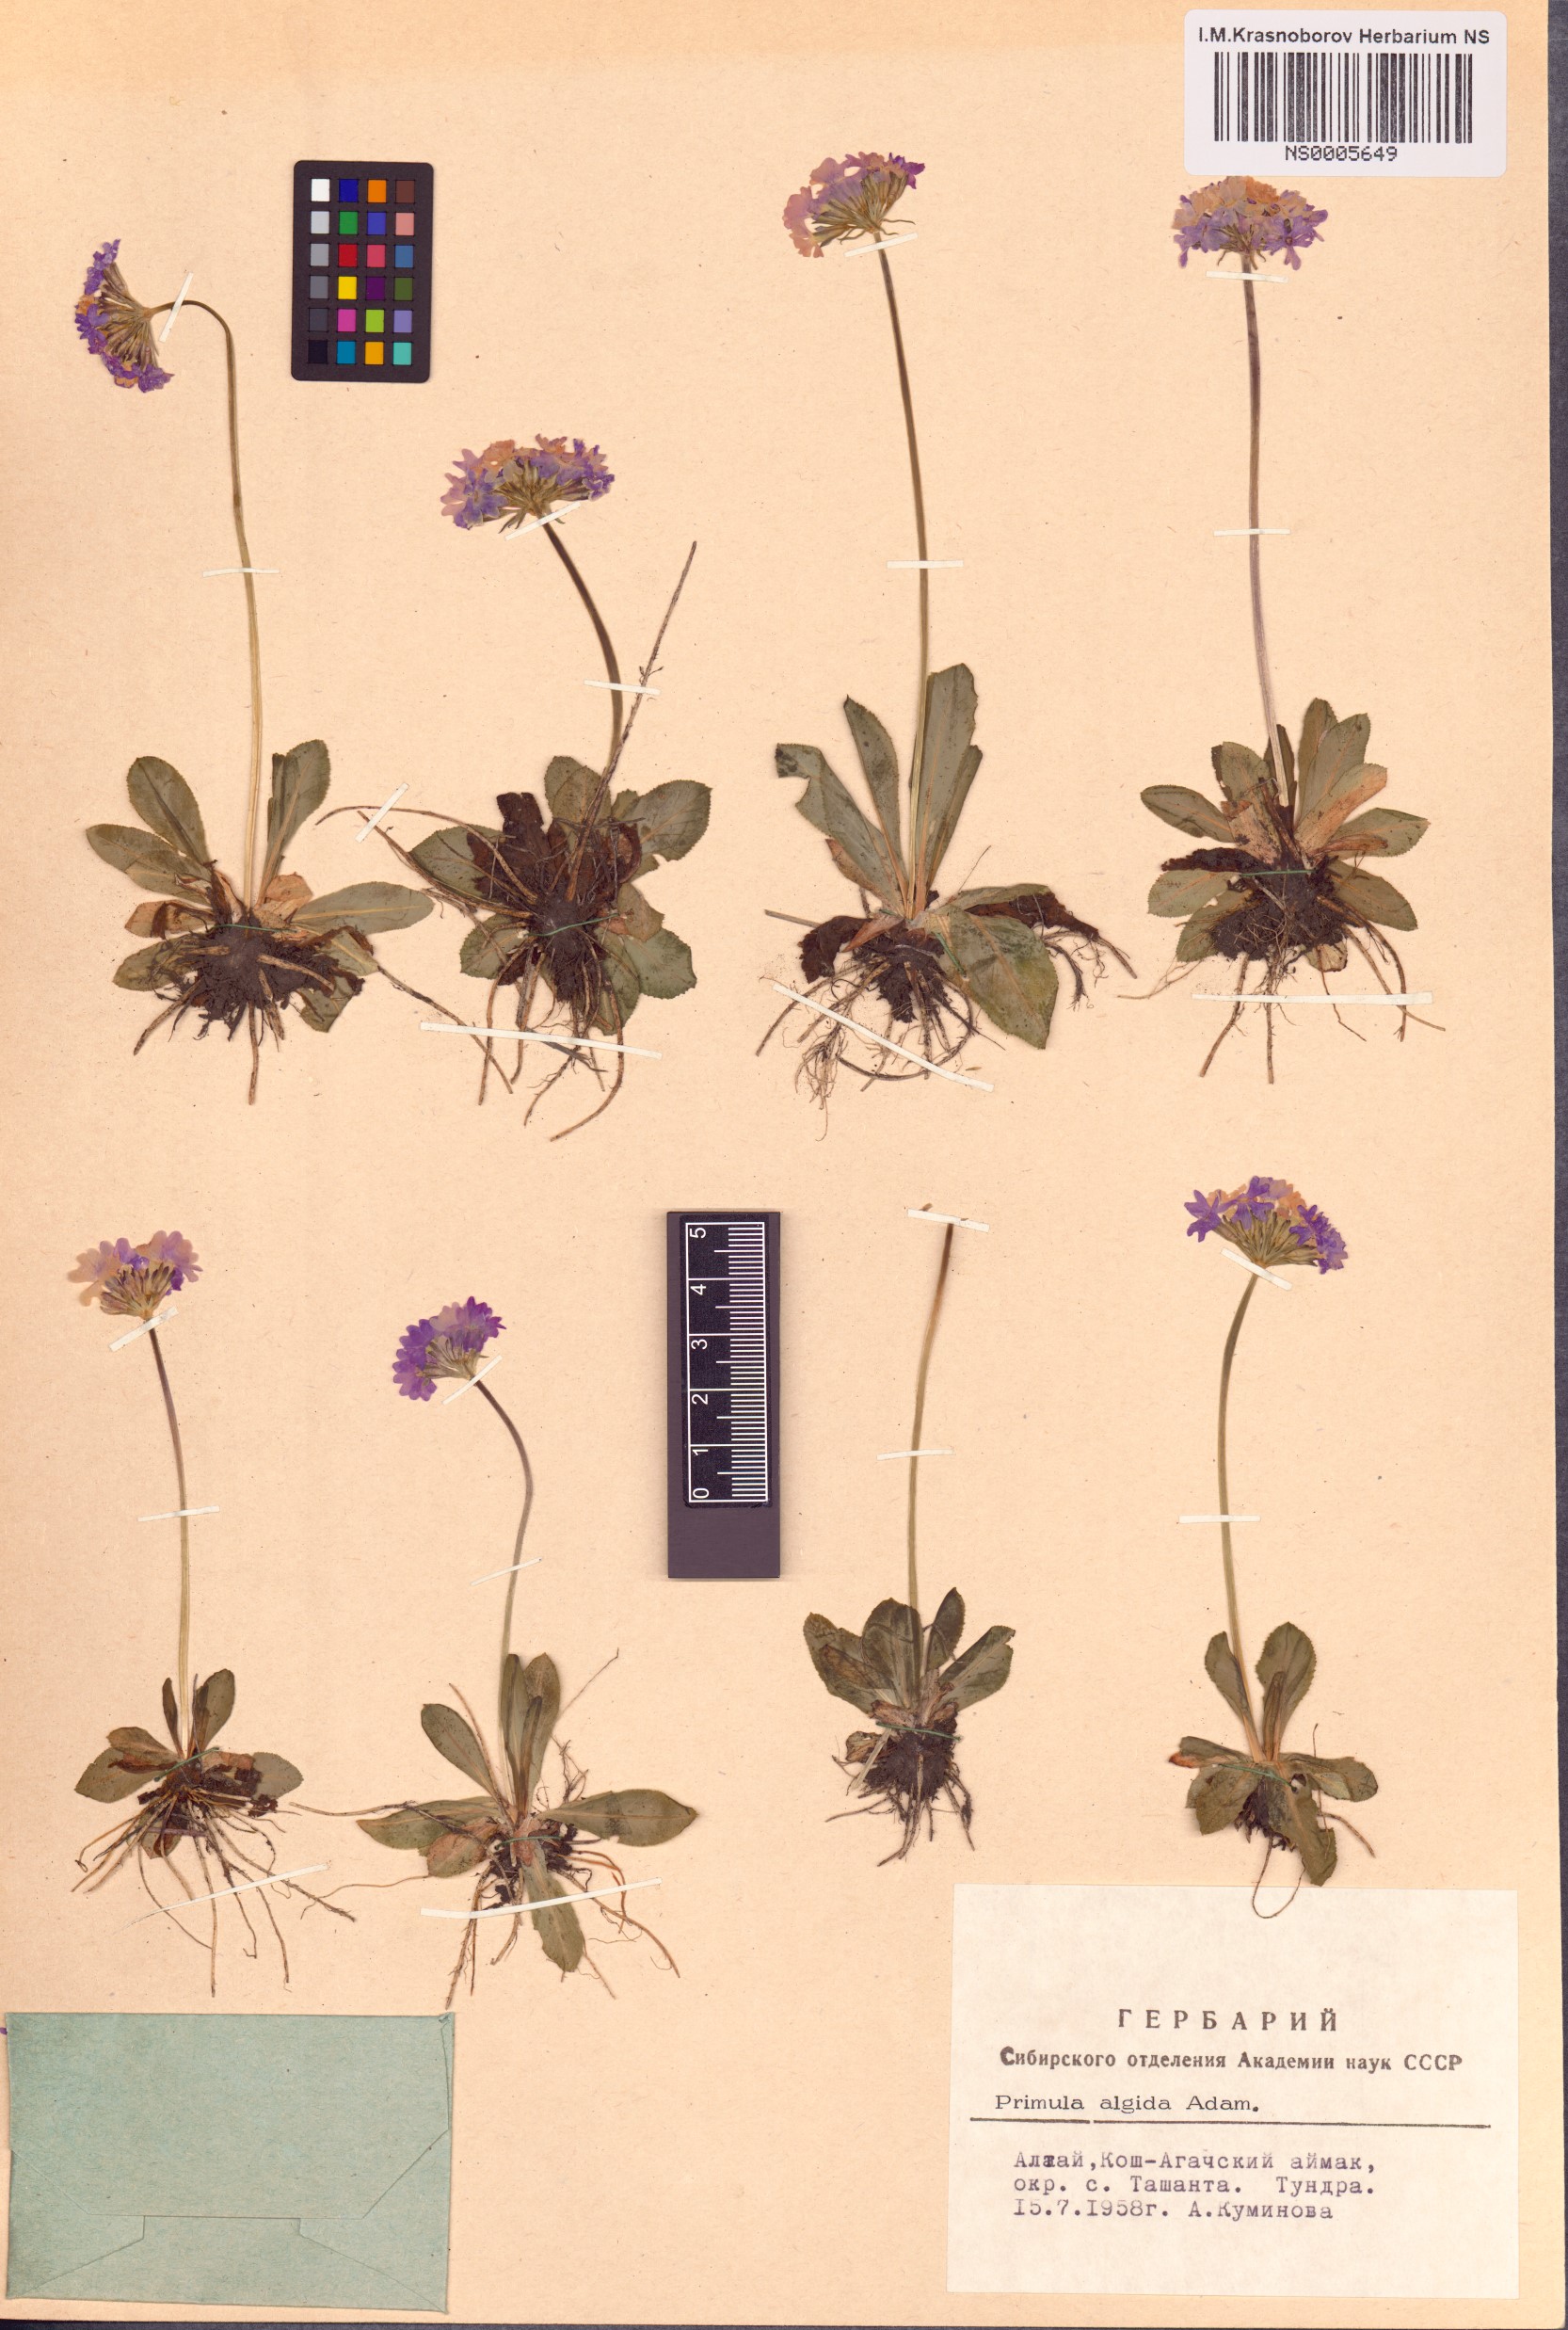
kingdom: Plantae
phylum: Tracheophyta
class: Magnoliopsida
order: Ericales
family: Primulaceae
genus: Primula
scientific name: Primula algida
